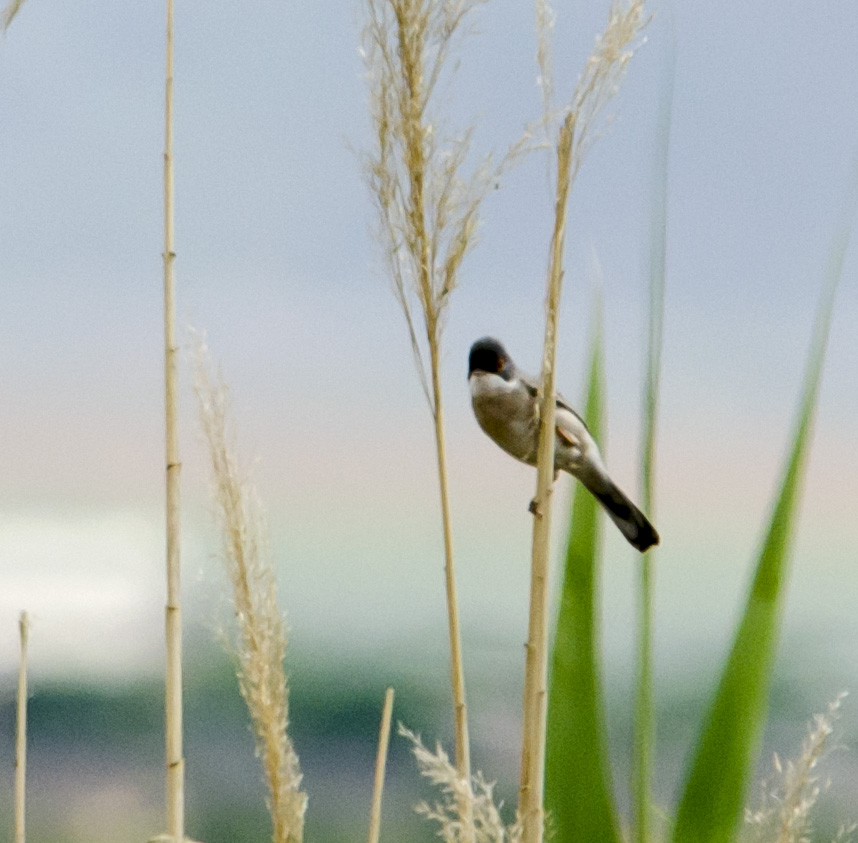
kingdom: Animalia
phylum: Chordata
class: Aves
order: Passeriformes
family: Sylviidae
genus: Sylvia
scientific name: Sylvia sarda
